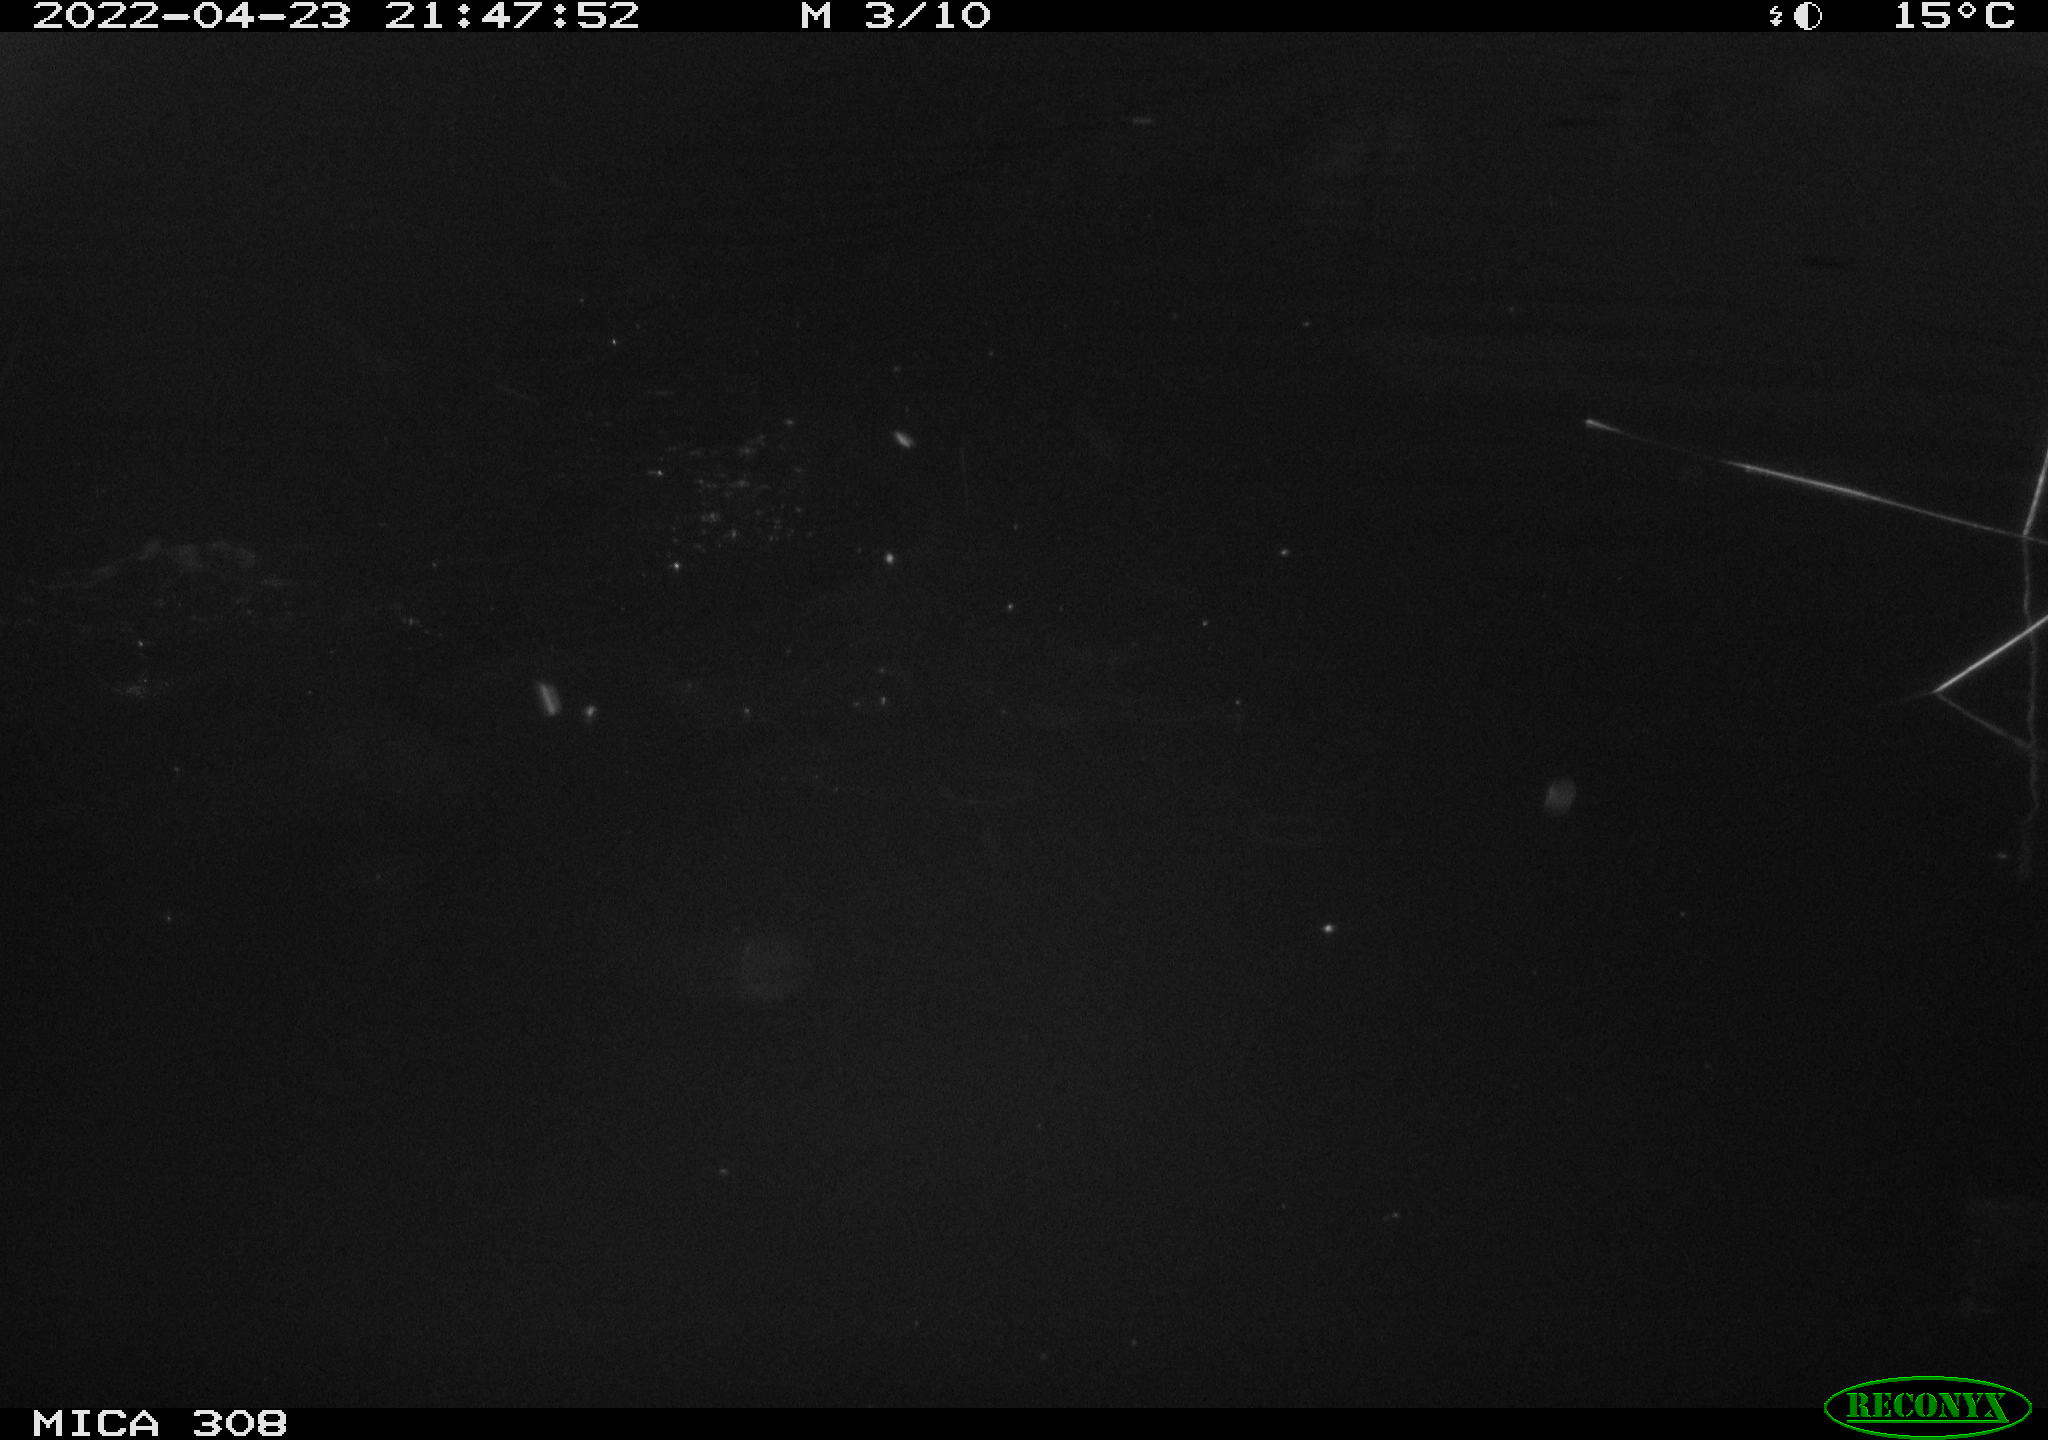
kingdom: Animalia
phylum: Chordata
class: Aves
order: Anseriformes
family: Anatidae
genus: Anas
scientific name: Anas platyrhynchos
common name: Mallard
